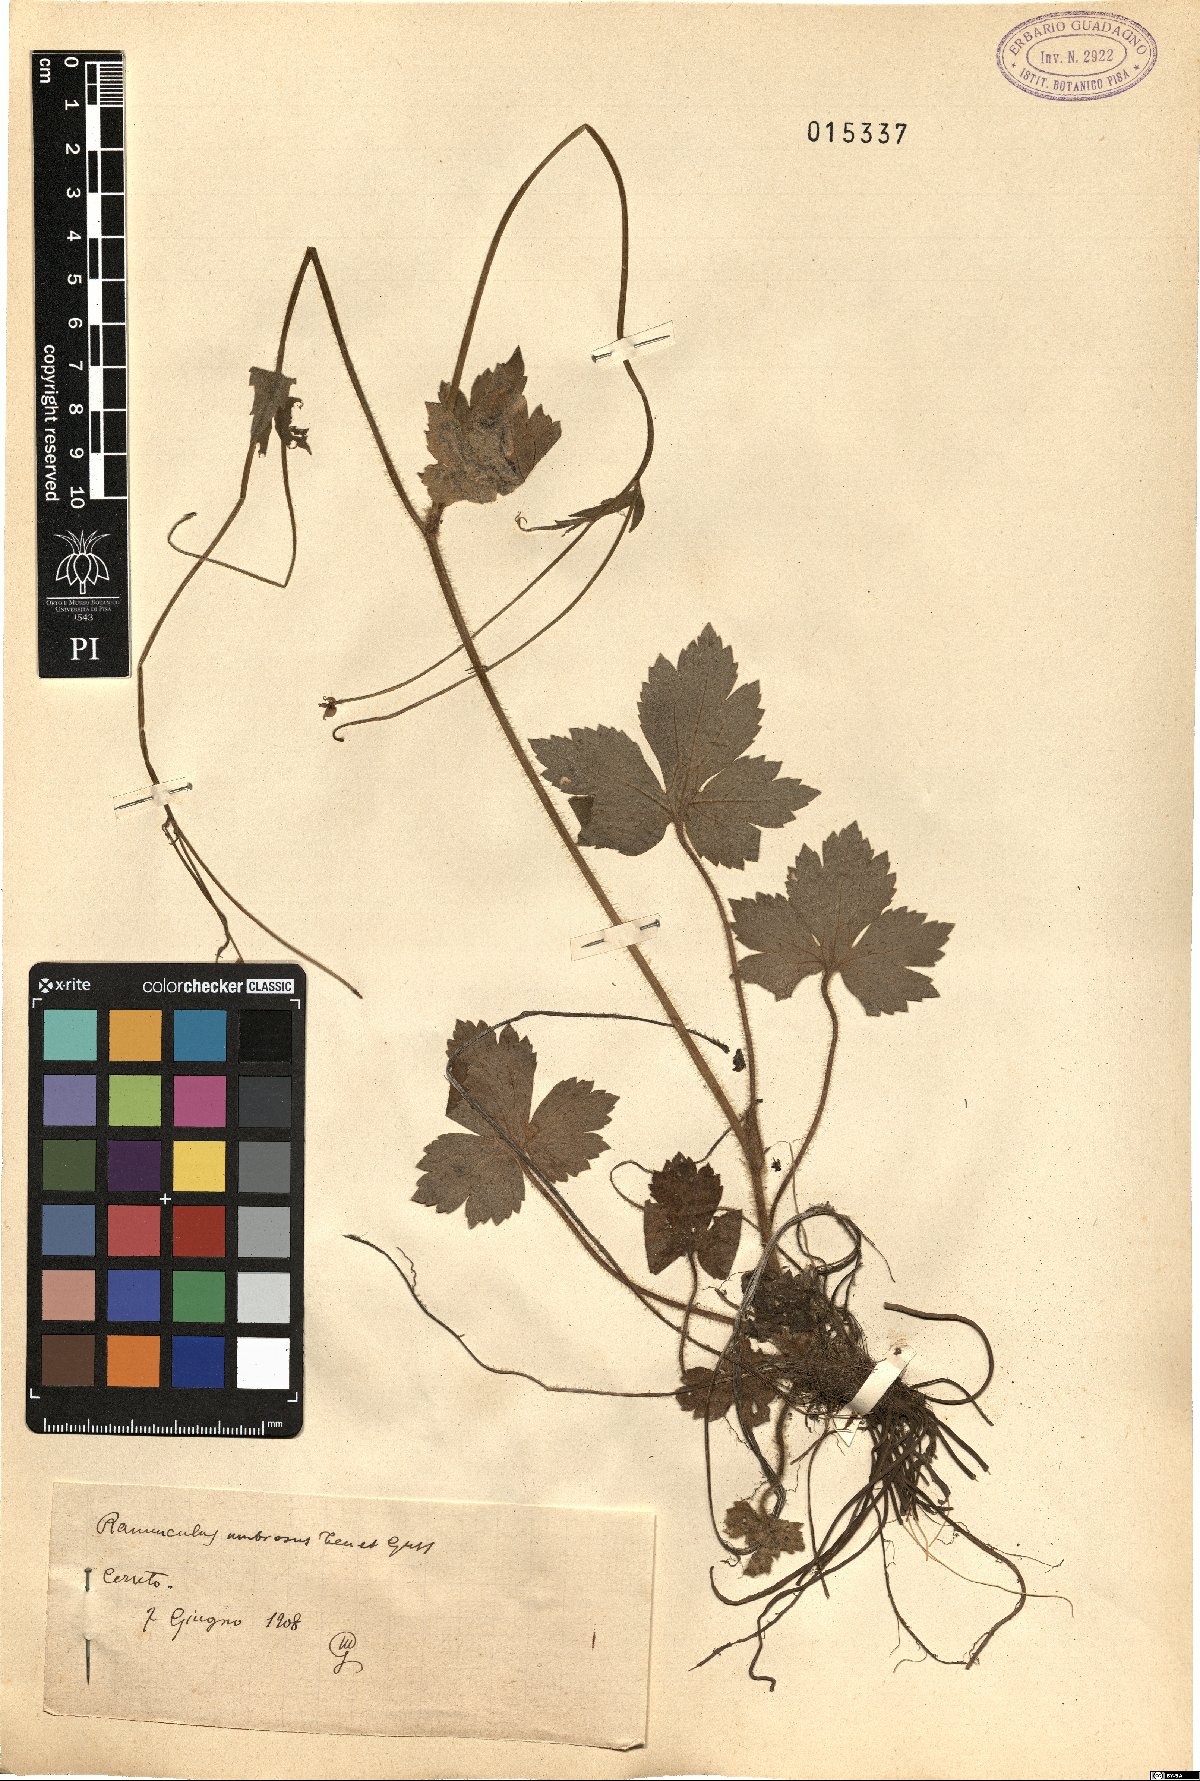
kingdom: Plantae
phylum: Tracheophyta
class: Magnoliopsida
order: Ranunculales
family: Ranunculaceae
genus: Ranunculus
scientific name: Ranunculus lanuginosus
